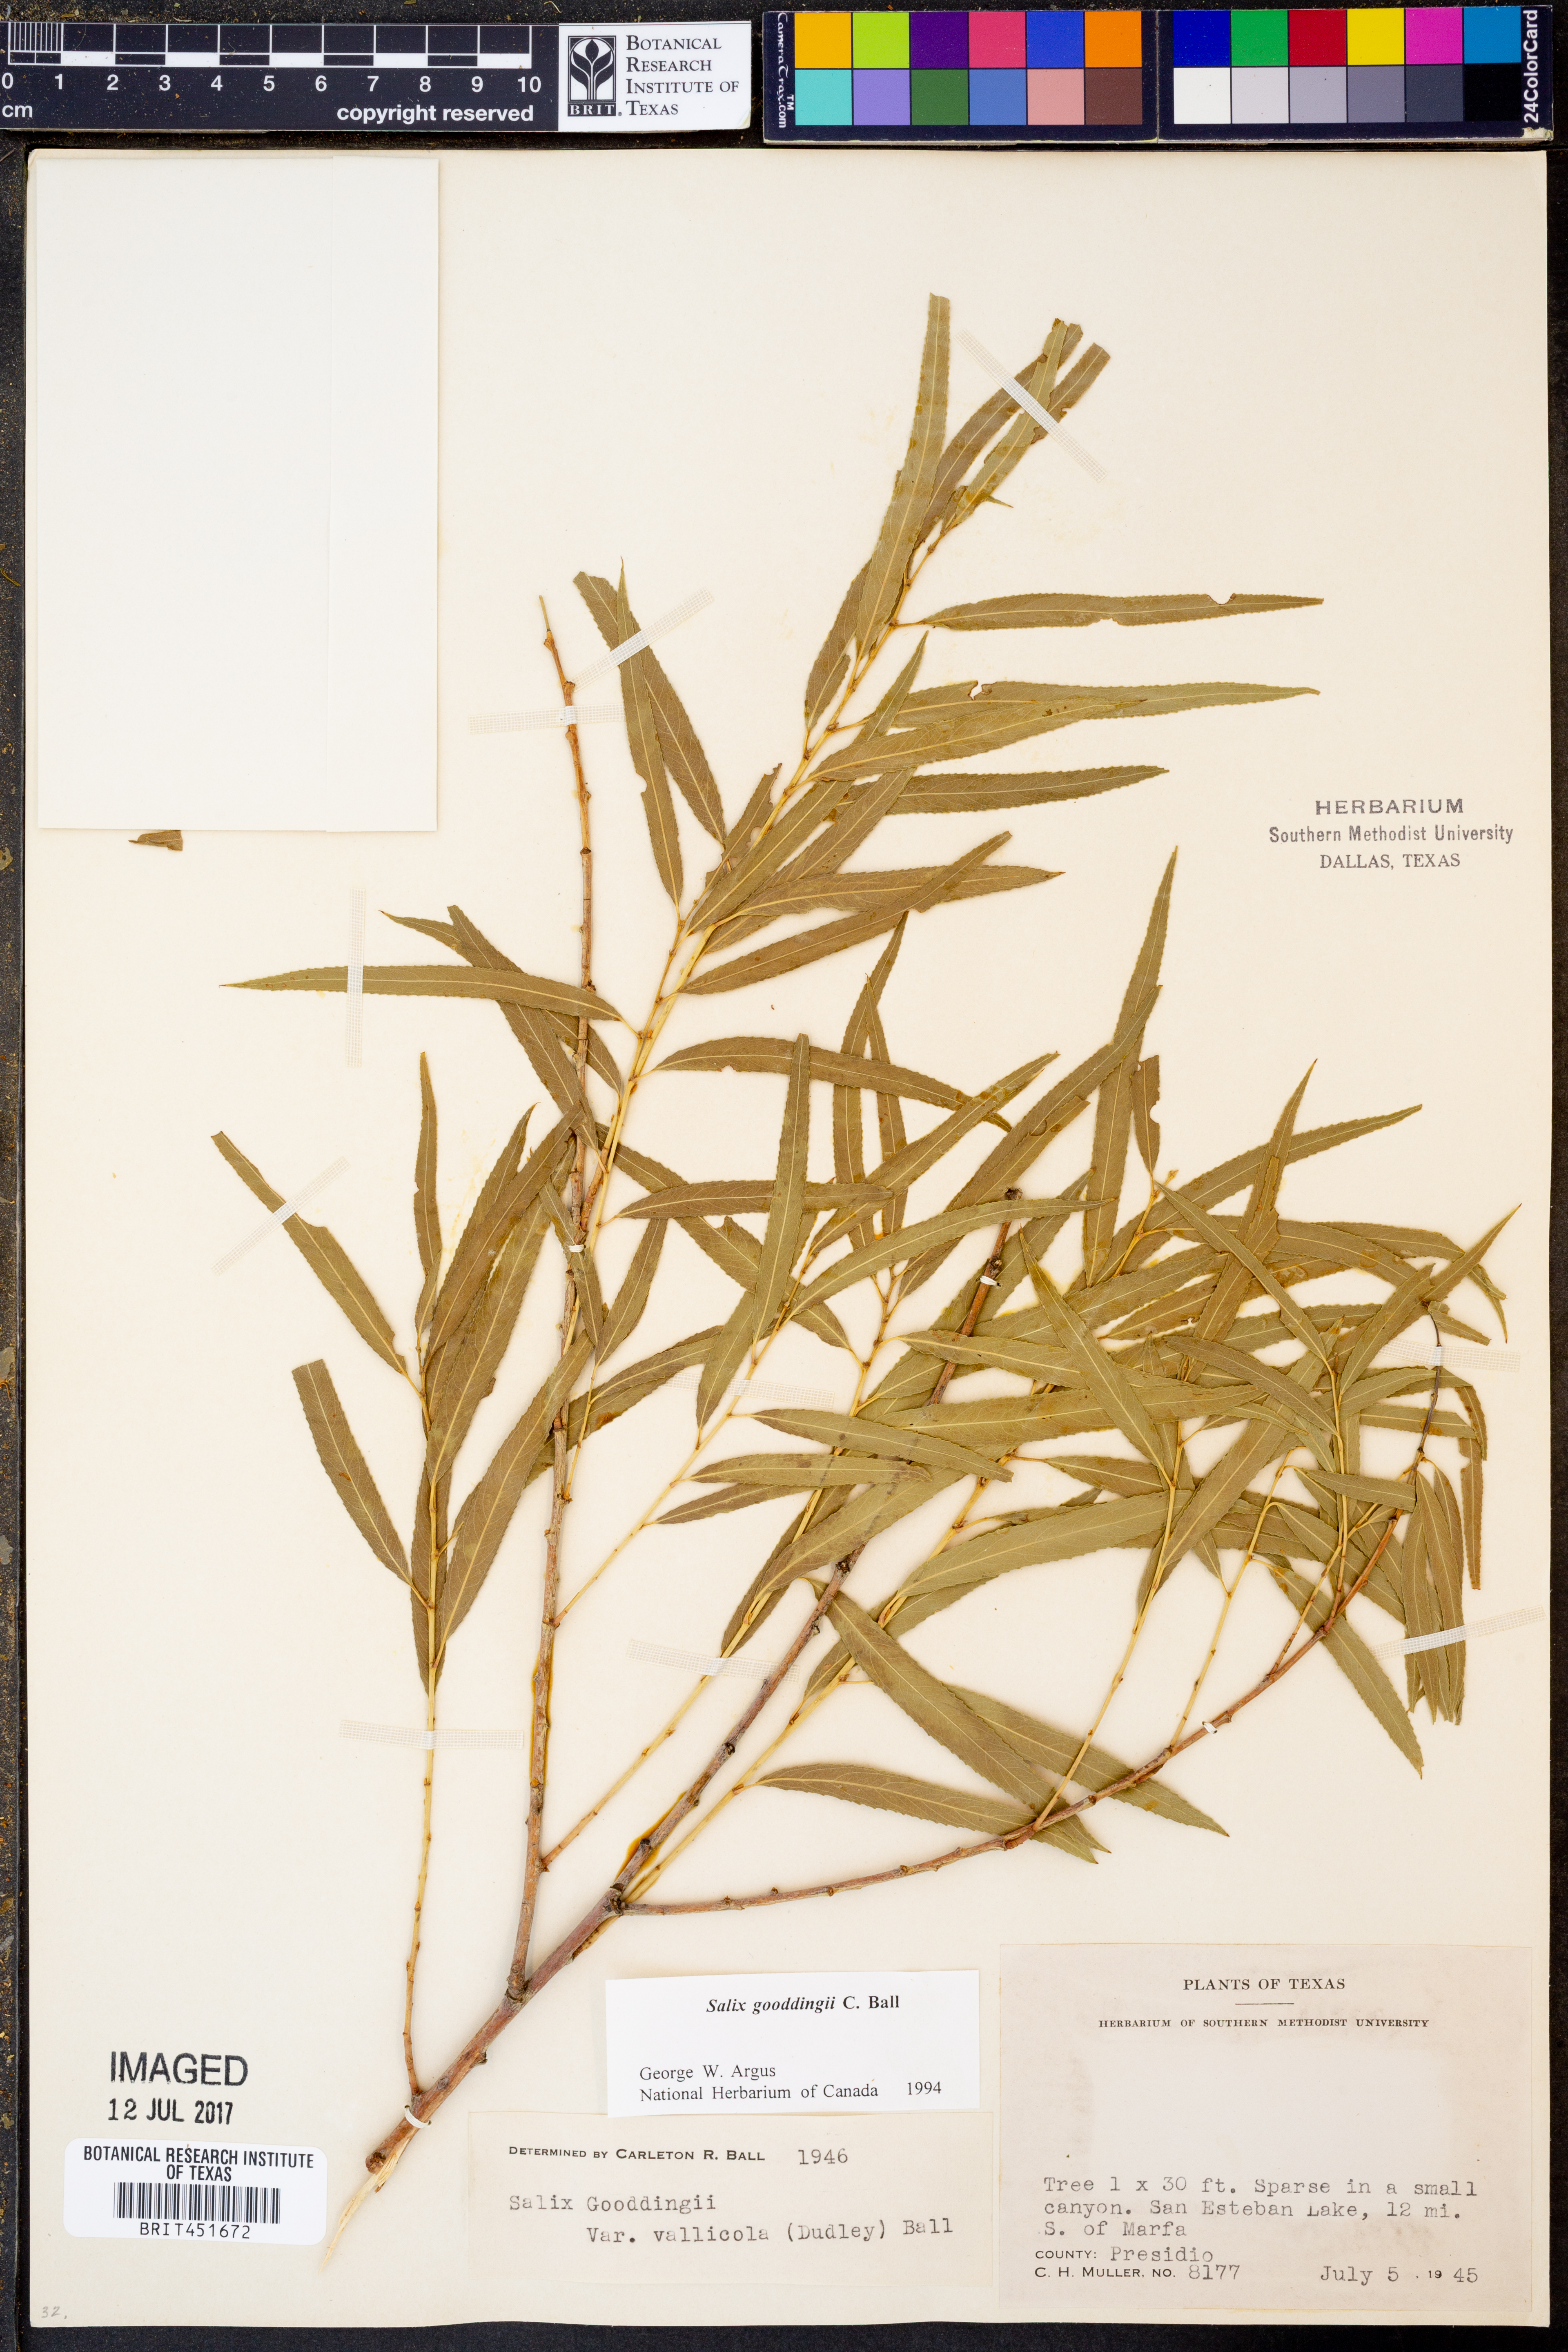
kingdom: Plantae
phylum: Tracheophyta
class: Magnoliopsida
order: Malpighiales
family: Salicaceae
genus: Salix
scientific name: Salix gooddingii
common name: Goodding's willow
